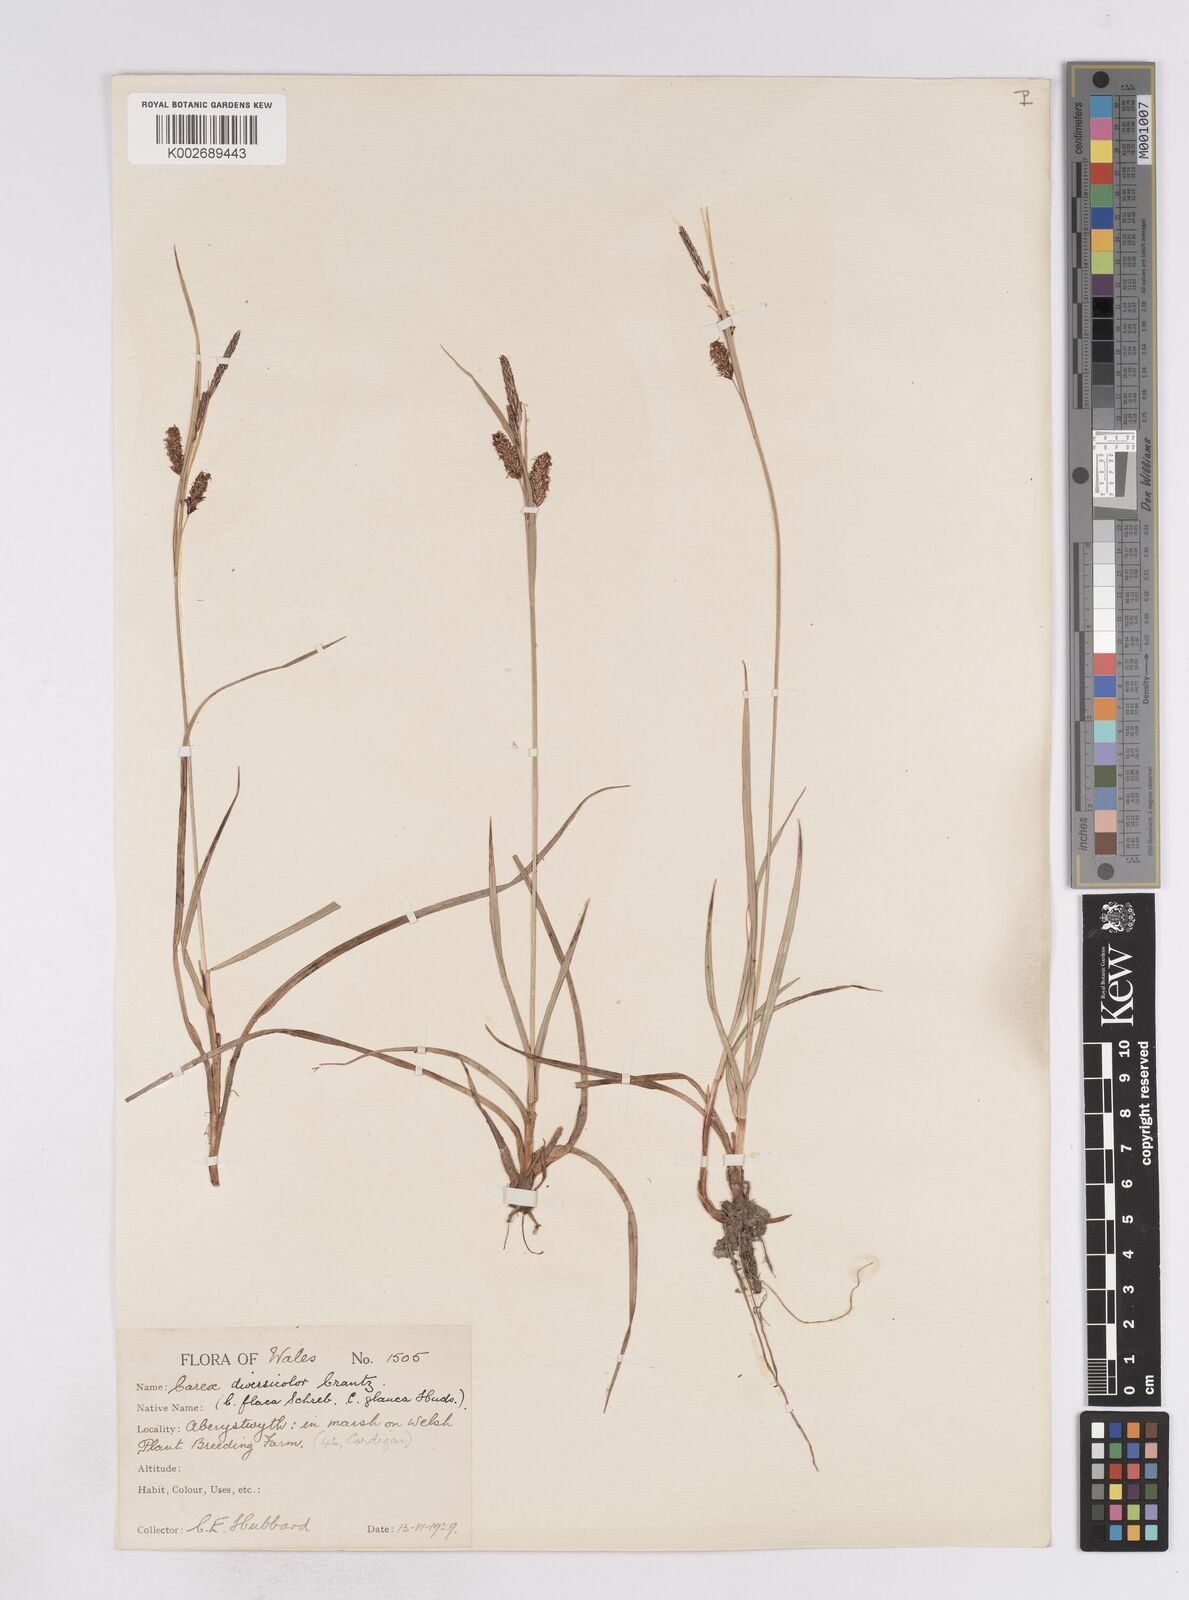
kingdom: Plantae
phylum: Tracheophyta
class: Liliopsida
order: Poales
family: Cyperaceae
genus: Carex
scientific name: Carex flacca
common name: Glaucous sedge
